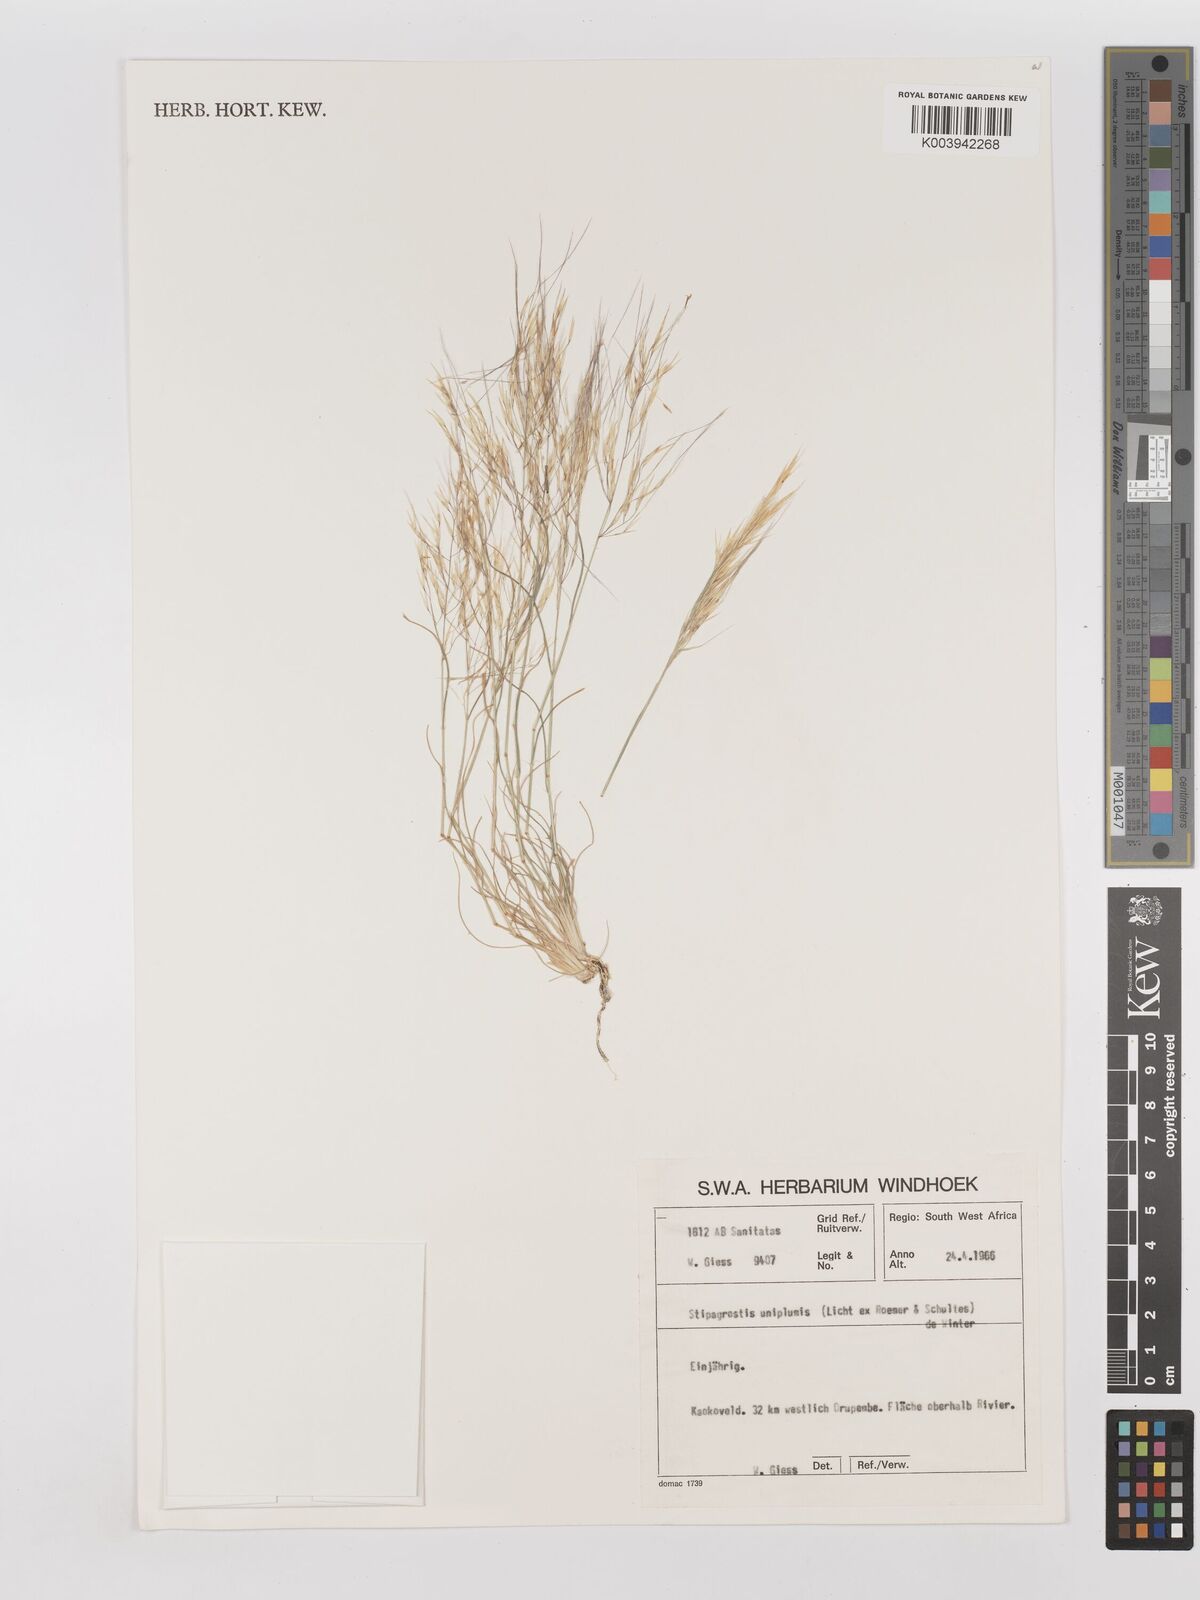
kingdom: Plantae
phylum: Tracheophyta
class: Liliopsida
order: Poales
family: Poaceae
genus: Stipagrostis
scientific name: Stipagrostis uniplumis
